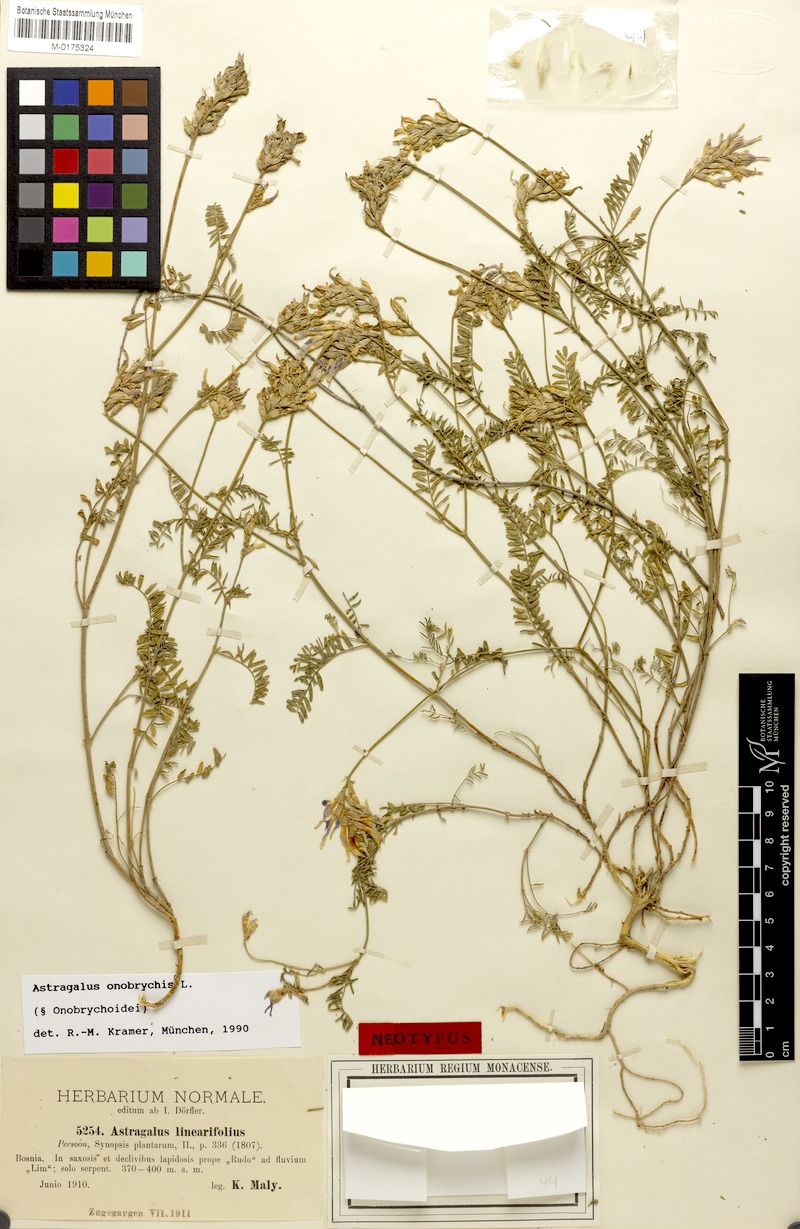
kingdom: Plantae
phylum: Tracheophyta
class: Magnoliopsida
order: Fabales
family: Fabaceae
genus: Astragalus
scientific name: Astragalus onobrychis
